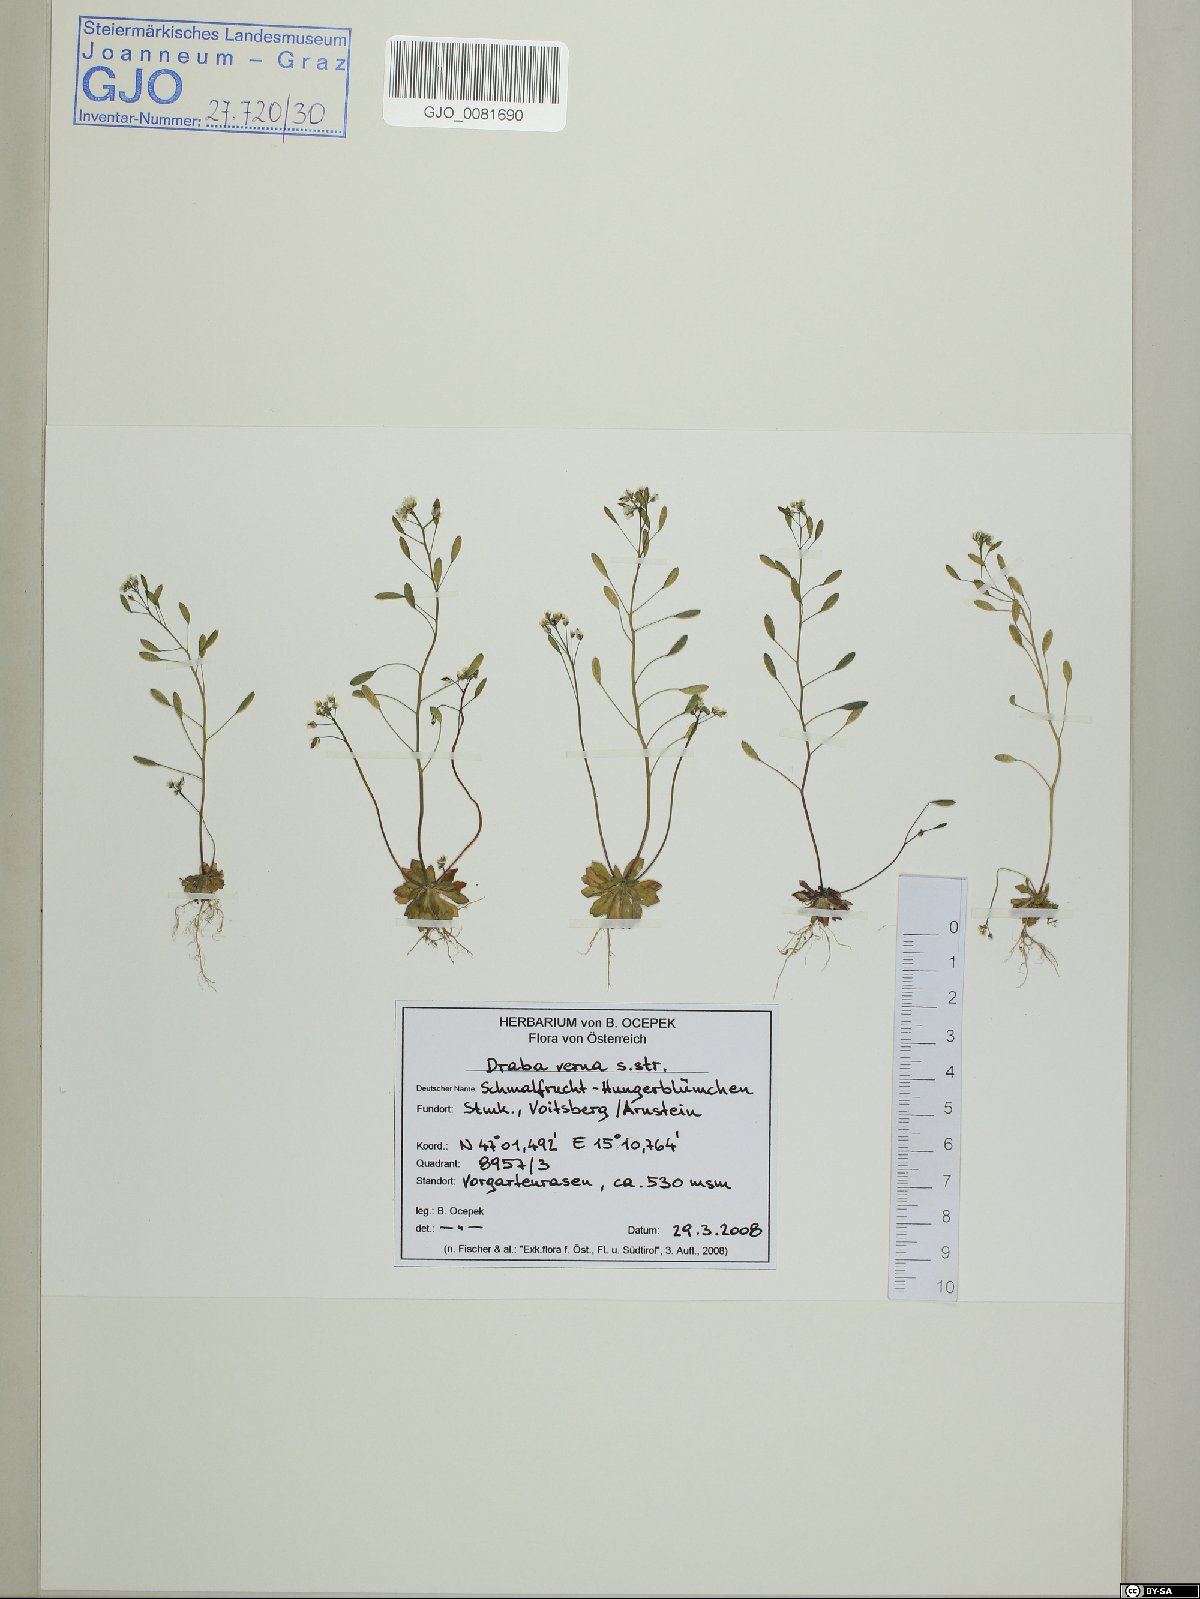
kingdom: Plantae
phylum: Tracheophyta
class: Magnoliopsida
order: Brassicales
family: Brassicaceae
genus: Draba
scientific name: Draba verna
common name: Spring draba
